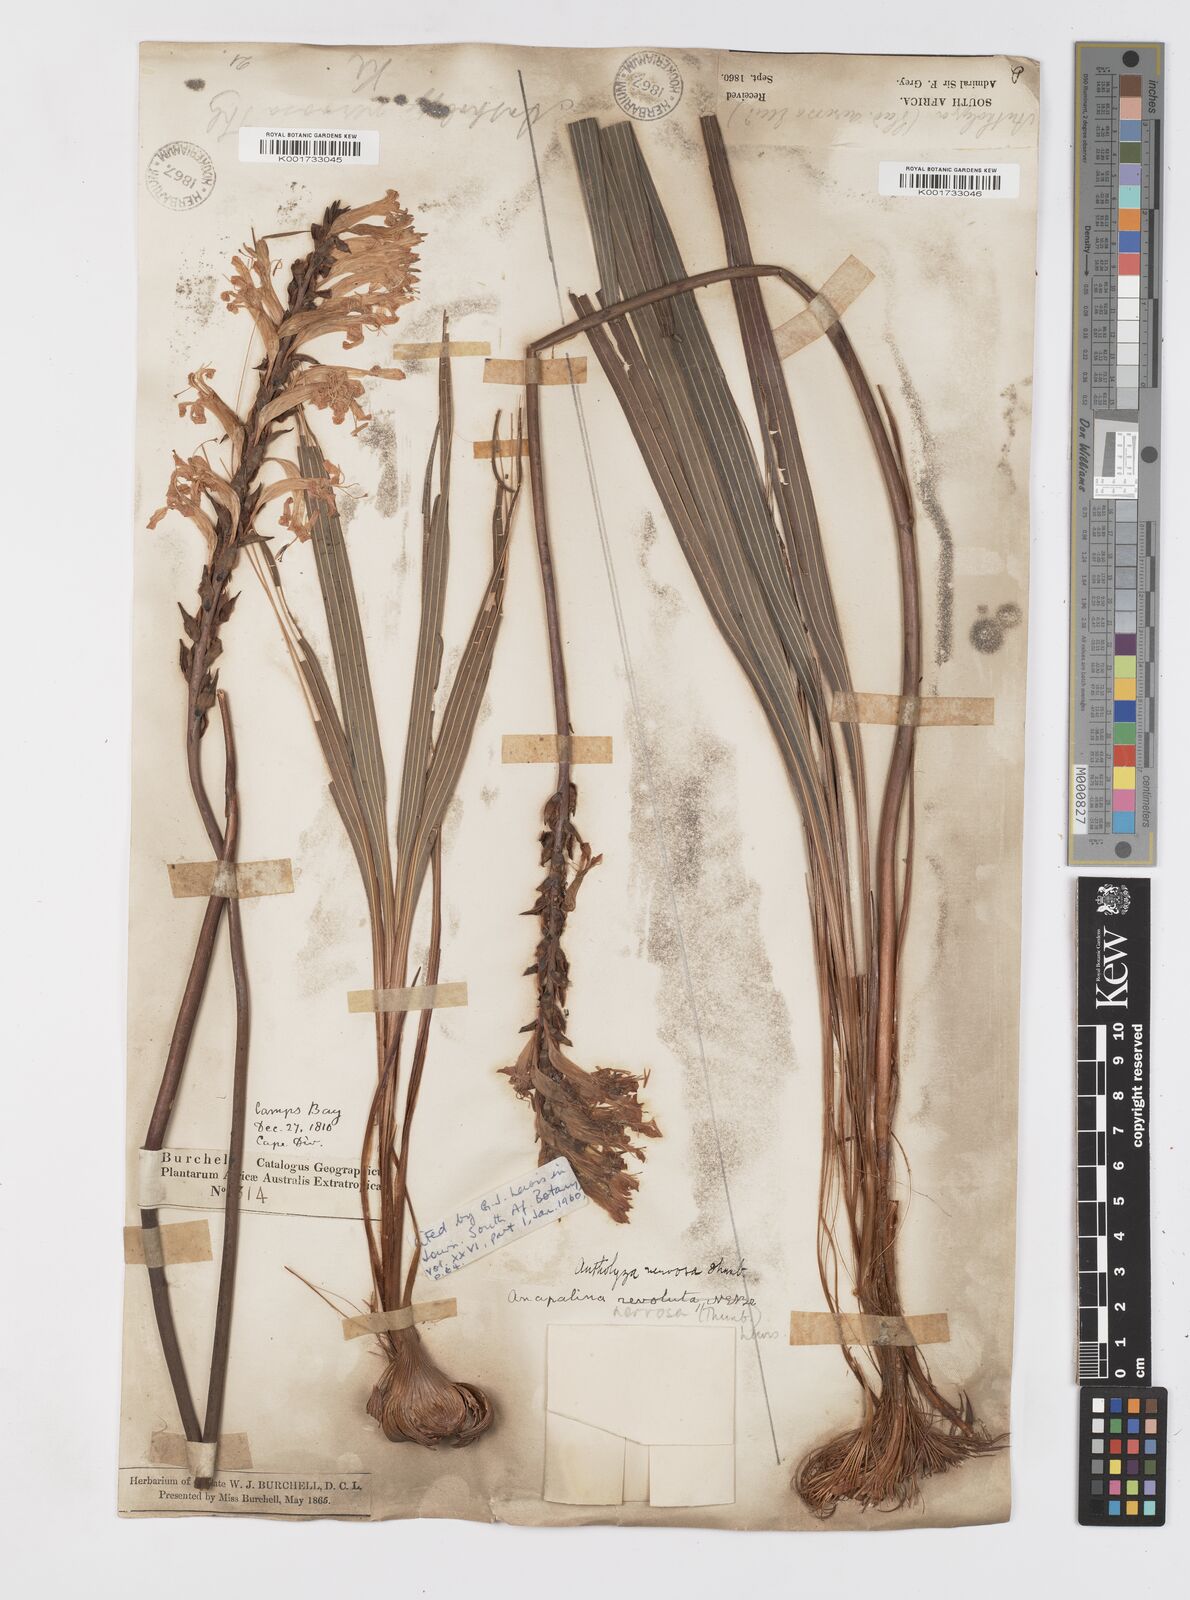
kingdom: Plantae
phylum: Tracheophyta
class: Liliopsida
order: Asparagales
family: Iridaceae
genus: Tritoniopsis
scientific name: Tritoniopsis nervosa
